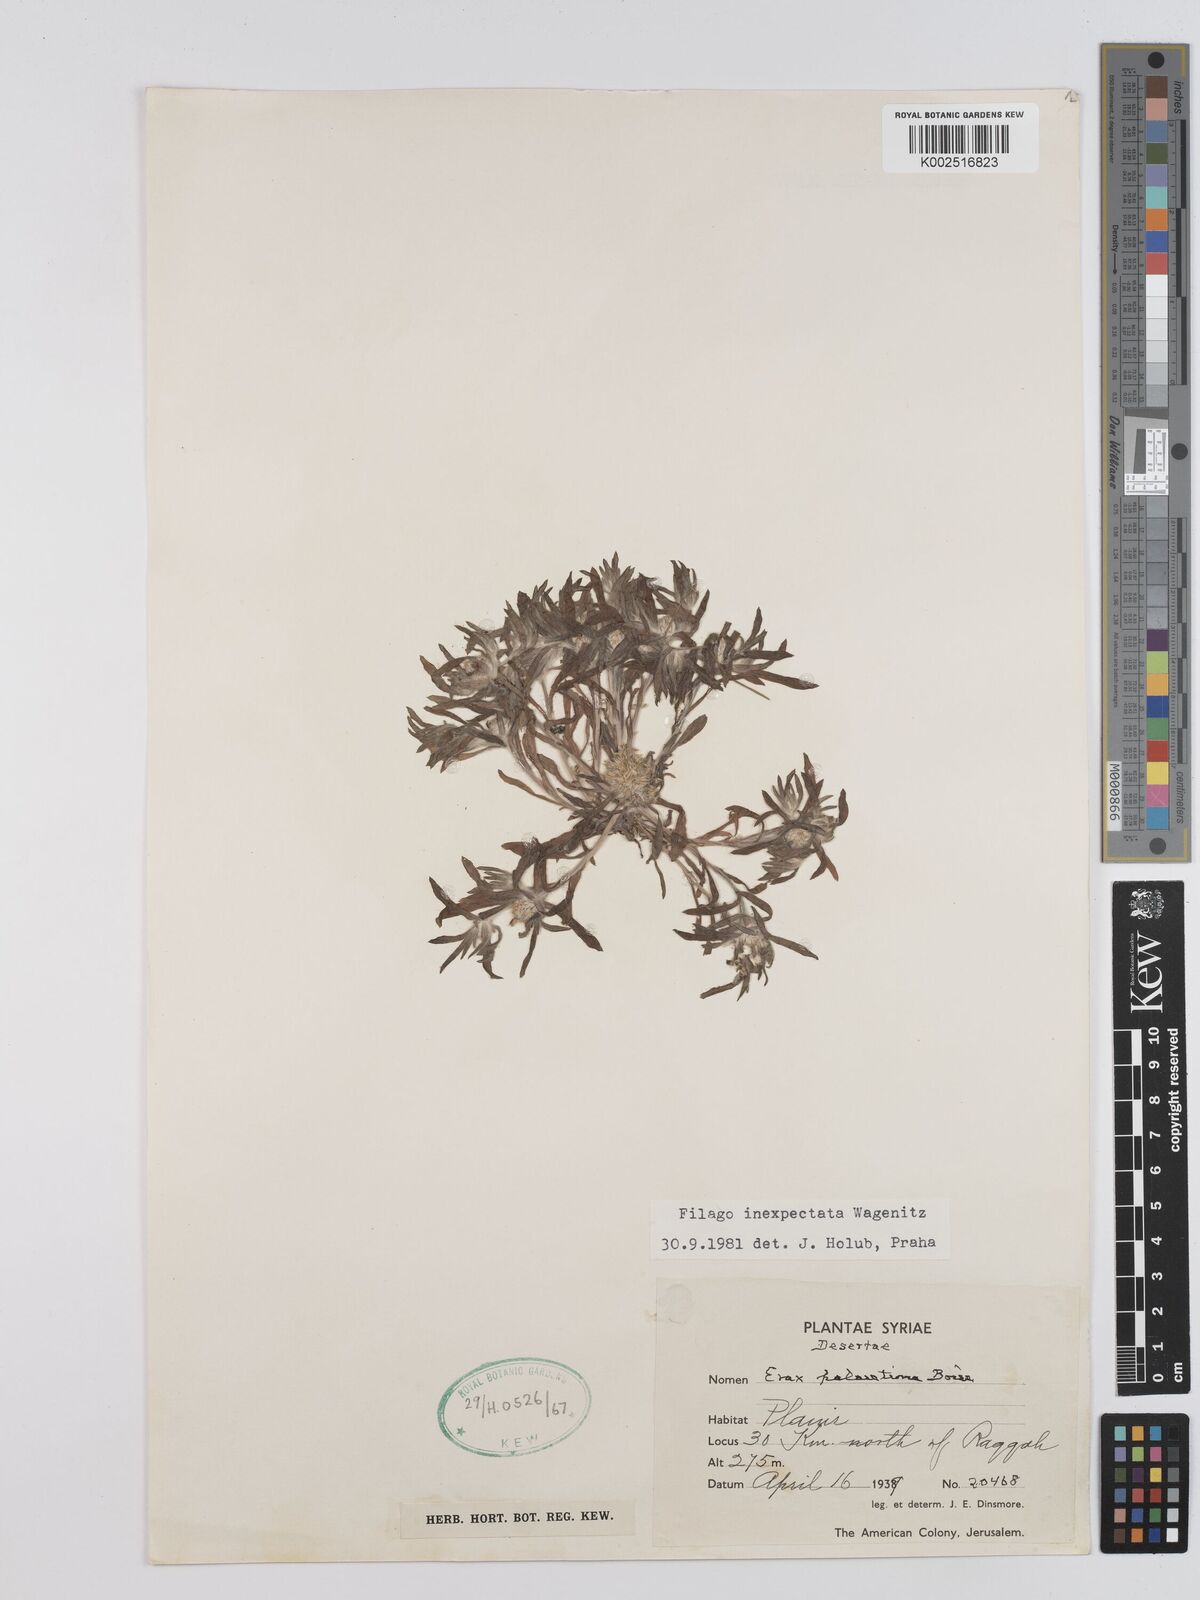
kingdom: Plantae
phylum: Tracheophyta
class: Magnoliopsida
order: Asterales
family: Asteraceae
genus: Filago
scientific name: Filago inexpectata
